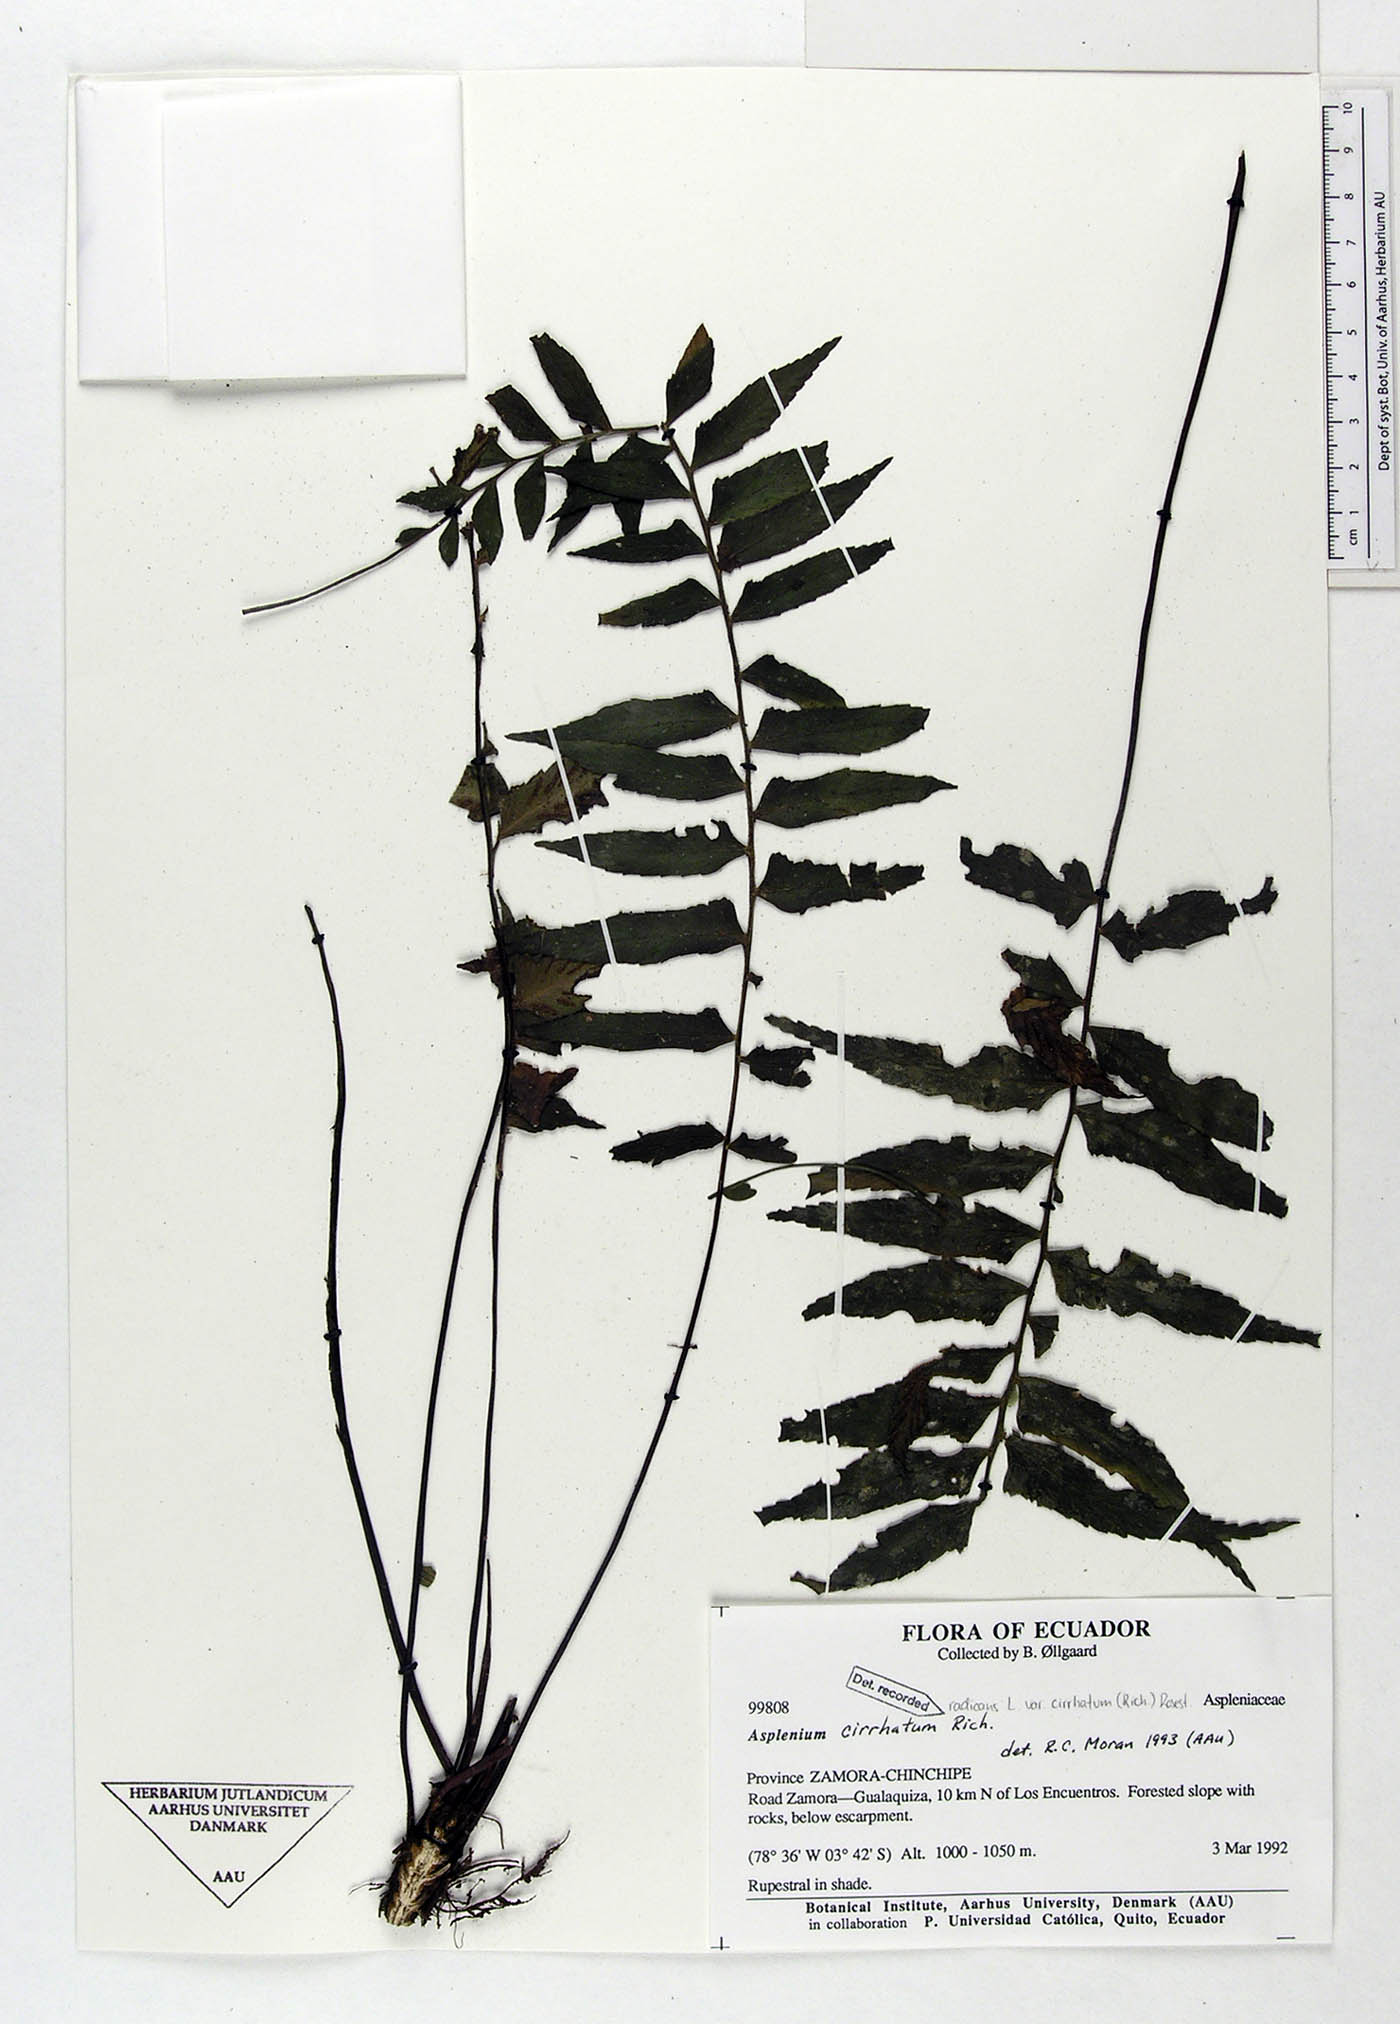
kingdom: Plantae
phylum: Tracheophyta
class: Polypodiopsida
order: Polypodiales
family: Aspleniaceae
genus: Asplenium
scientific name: Asplenium cirrhatum
